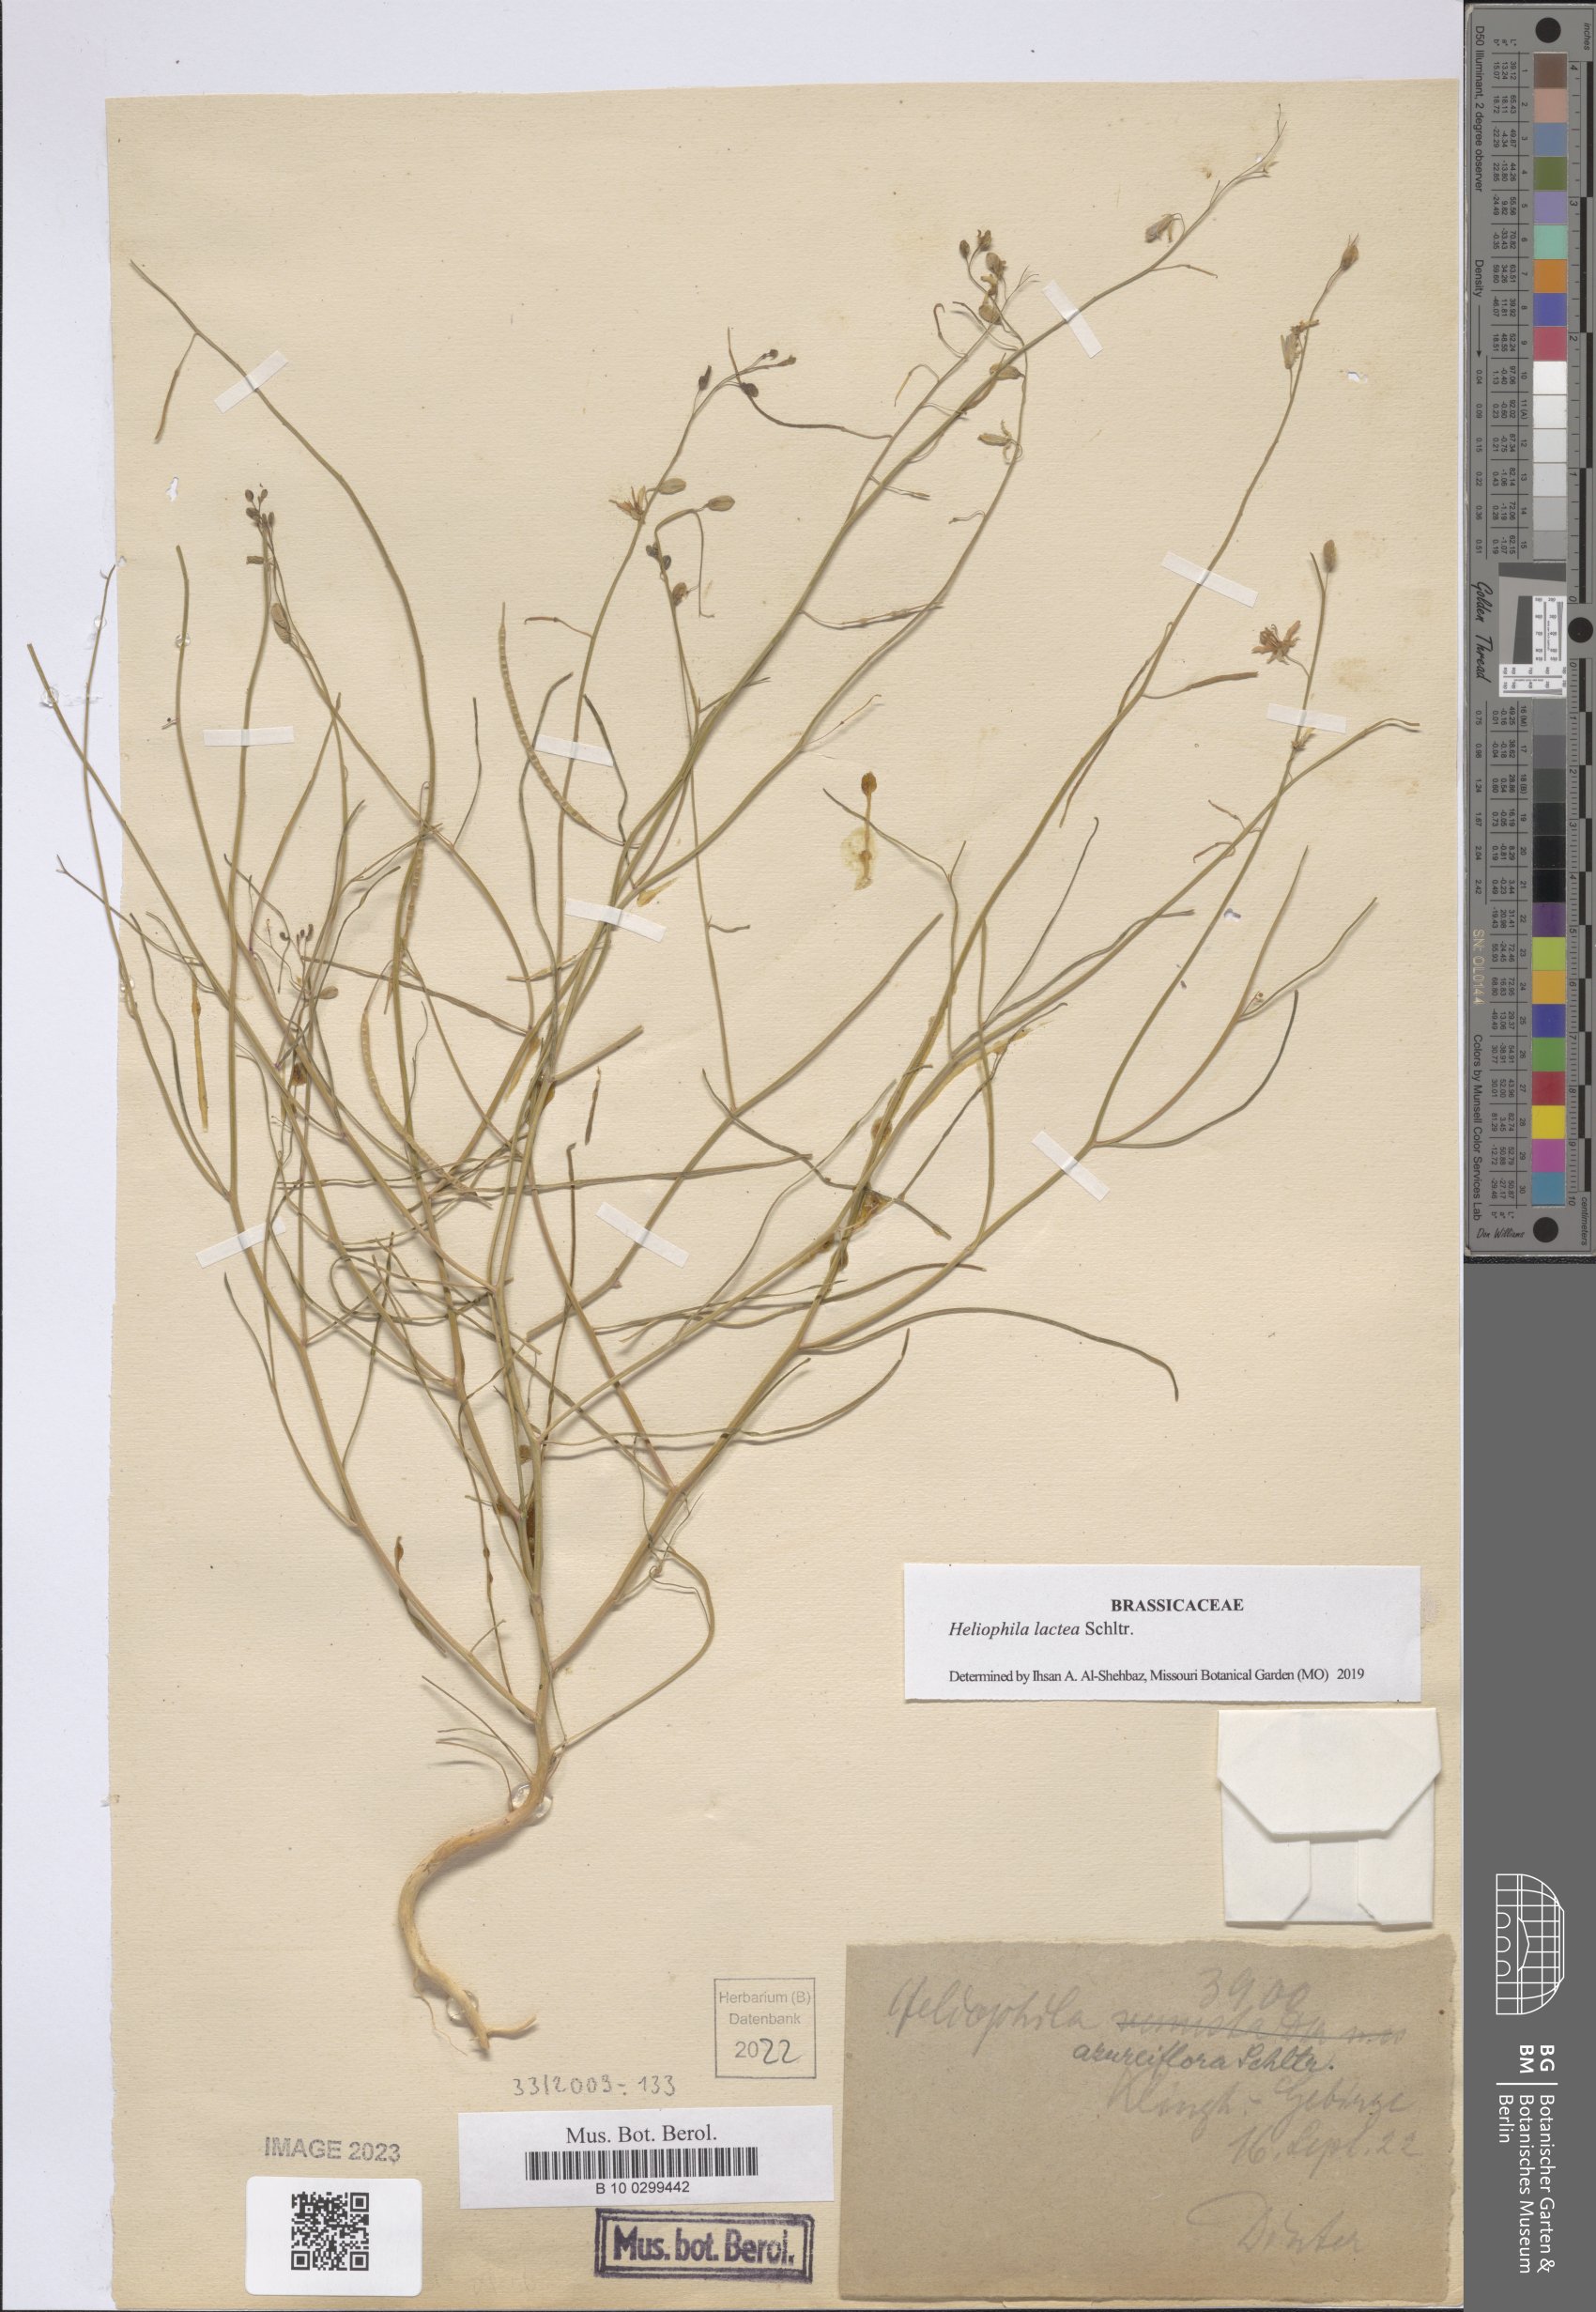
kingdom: Plantae
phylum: Tracheophyta
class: Magnoliopsida
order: Brassicales
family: Brassicaceae
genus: Heliophila
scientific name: Heliophila lactea
